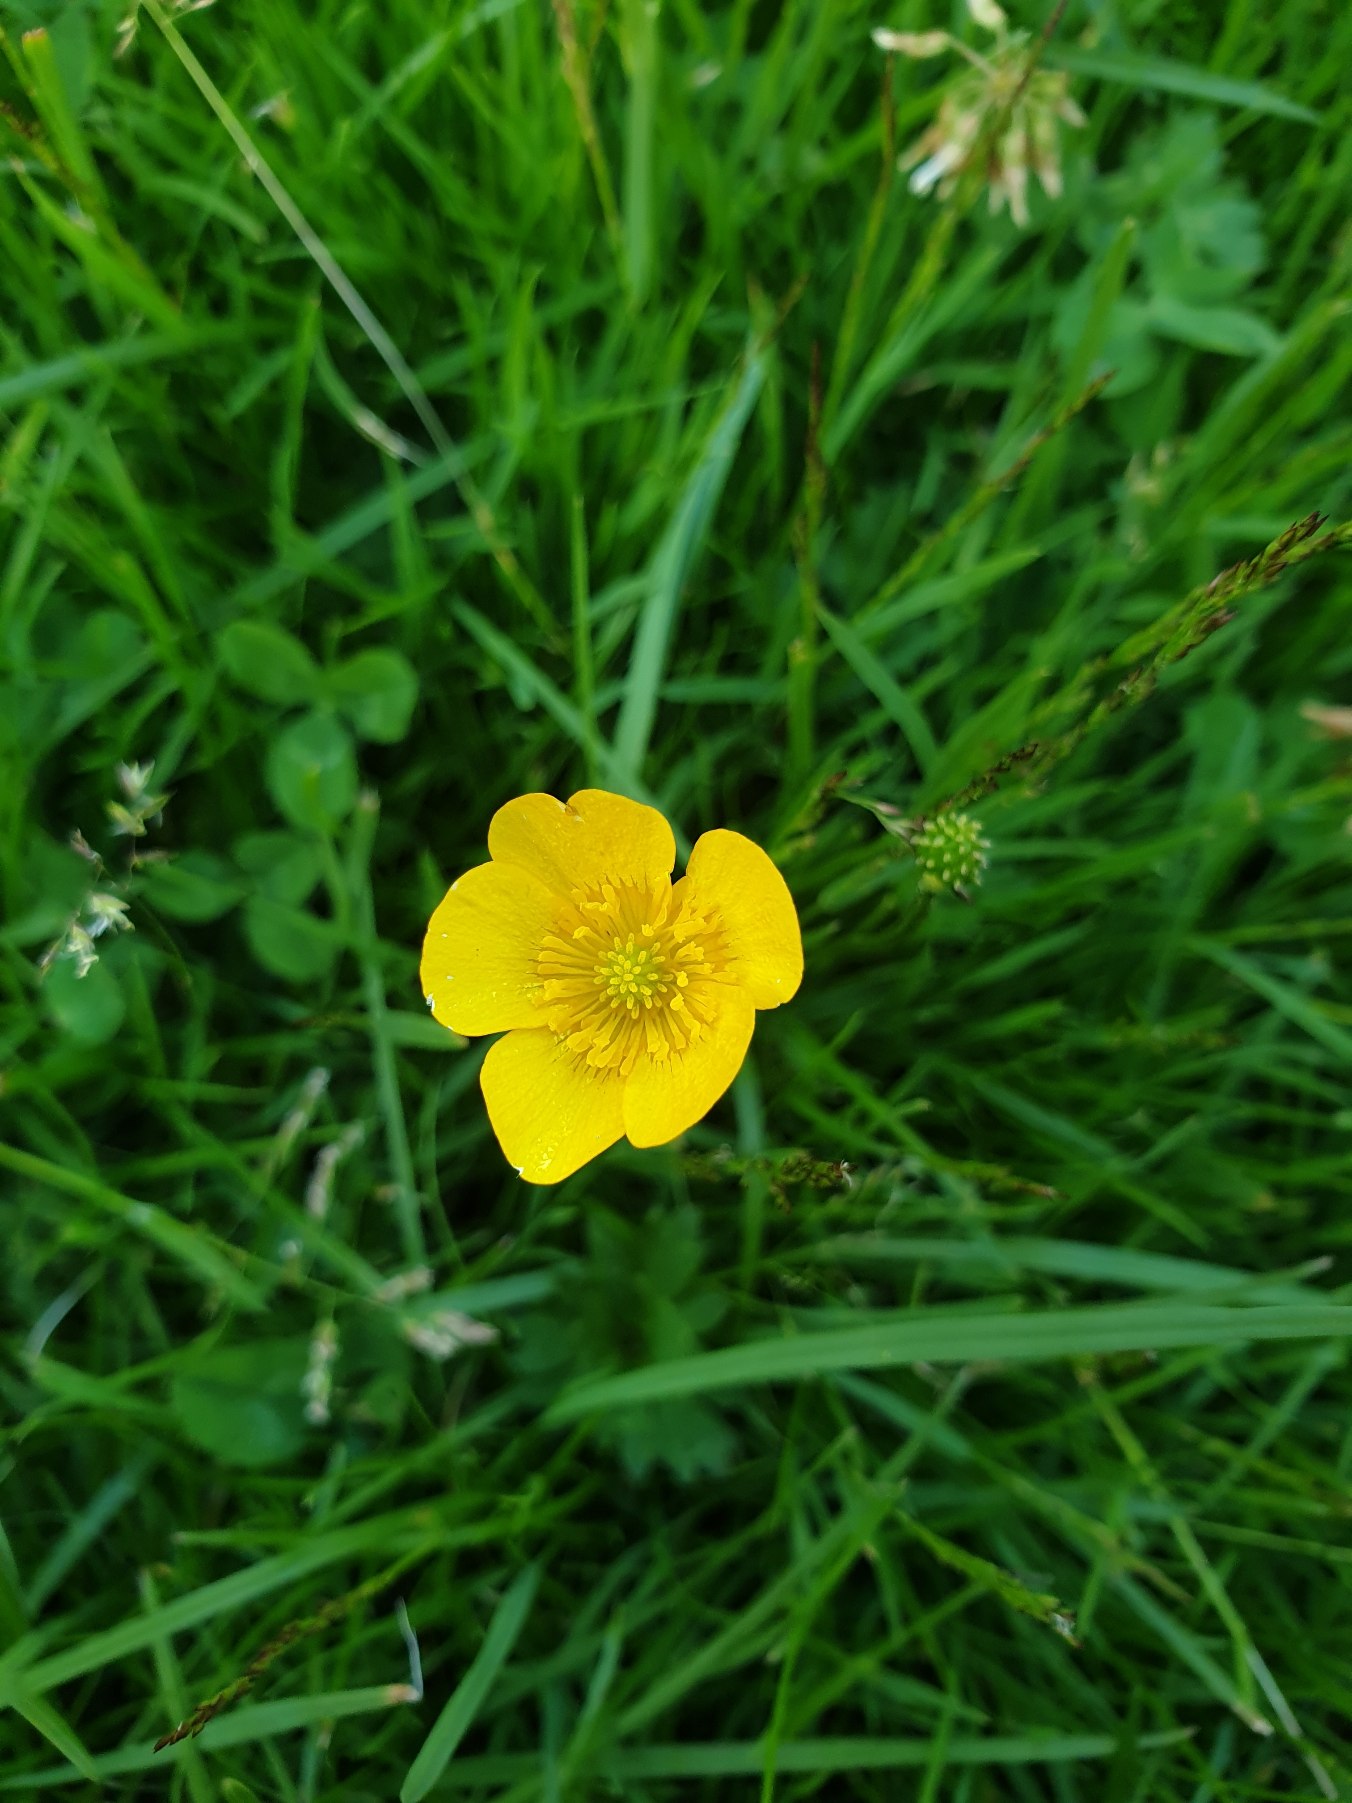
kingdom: Plantae
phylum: Tracheophyta
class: Magnoliopsida
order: Ranunculales
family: Ranunculaceae
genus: Ranunculus
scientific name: Ranunculus
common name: Ranunkelslægten
